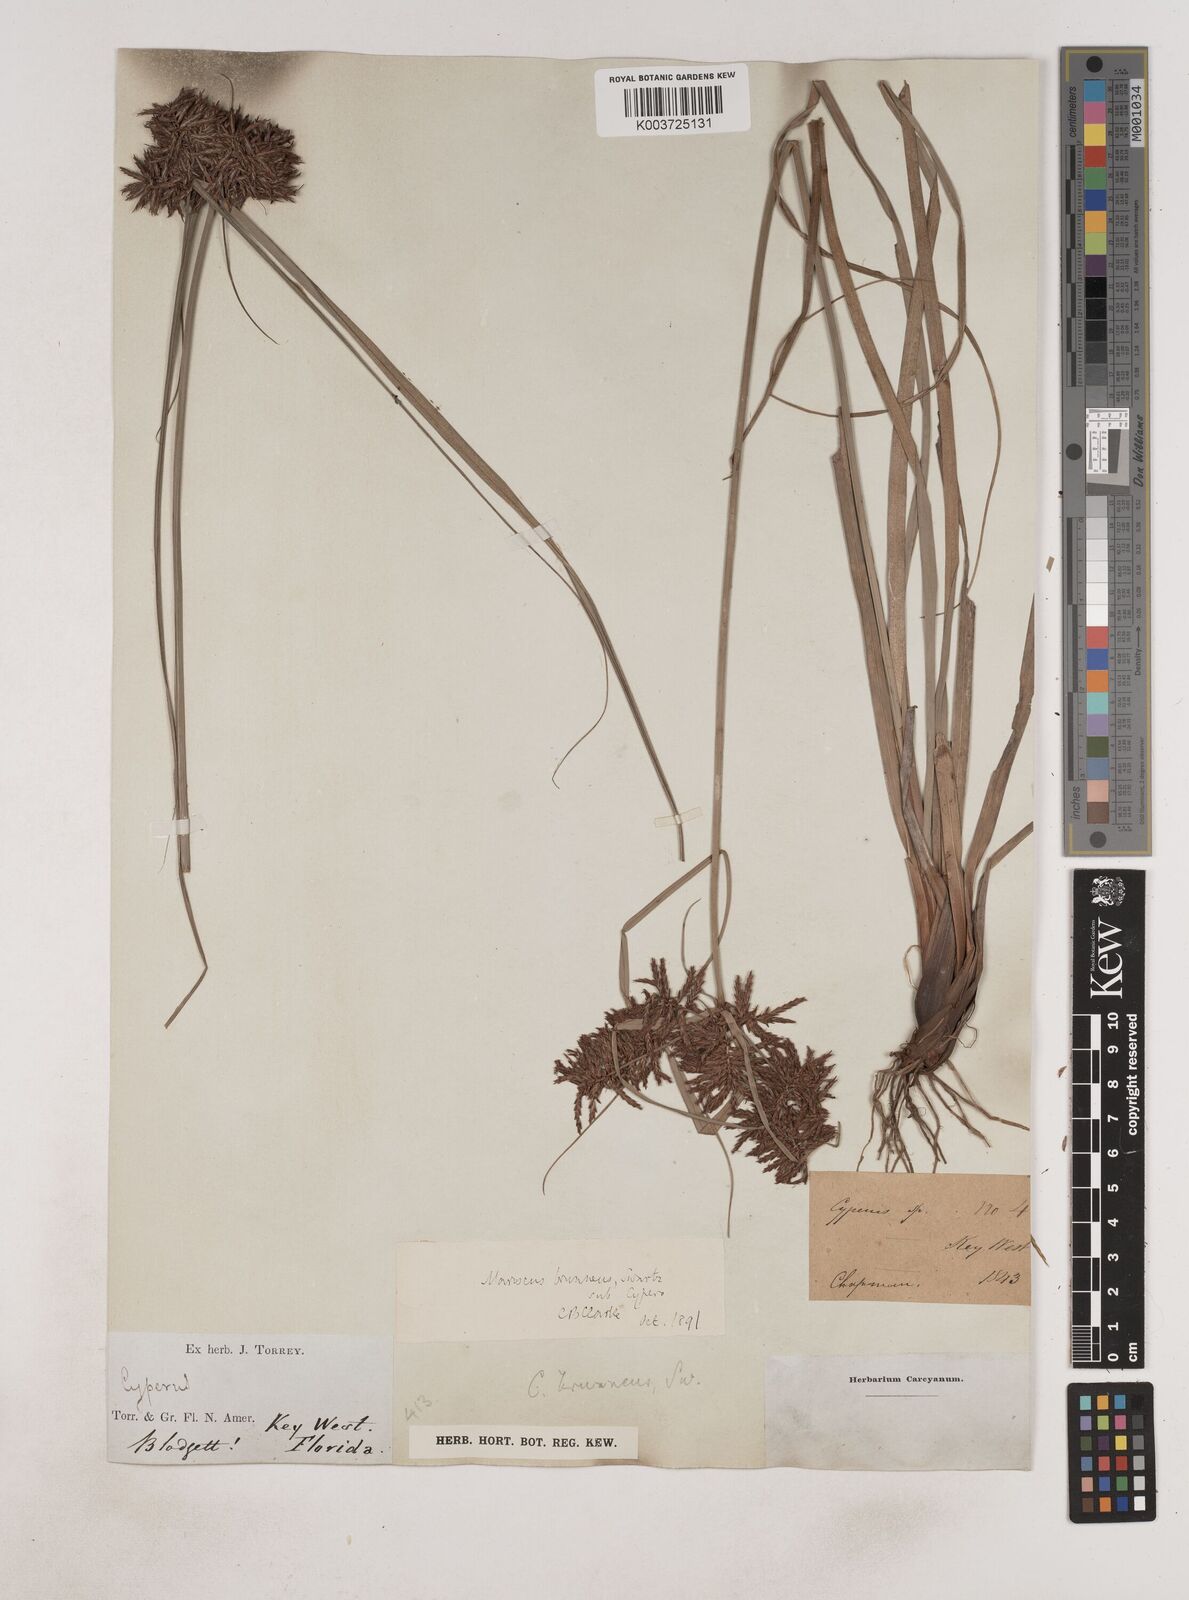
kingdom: Plantae
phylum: Tracheophyta
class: Liliopsida
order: Poales
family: Cyperaceae
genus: Cyperus
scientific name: Cyperus brunneus
